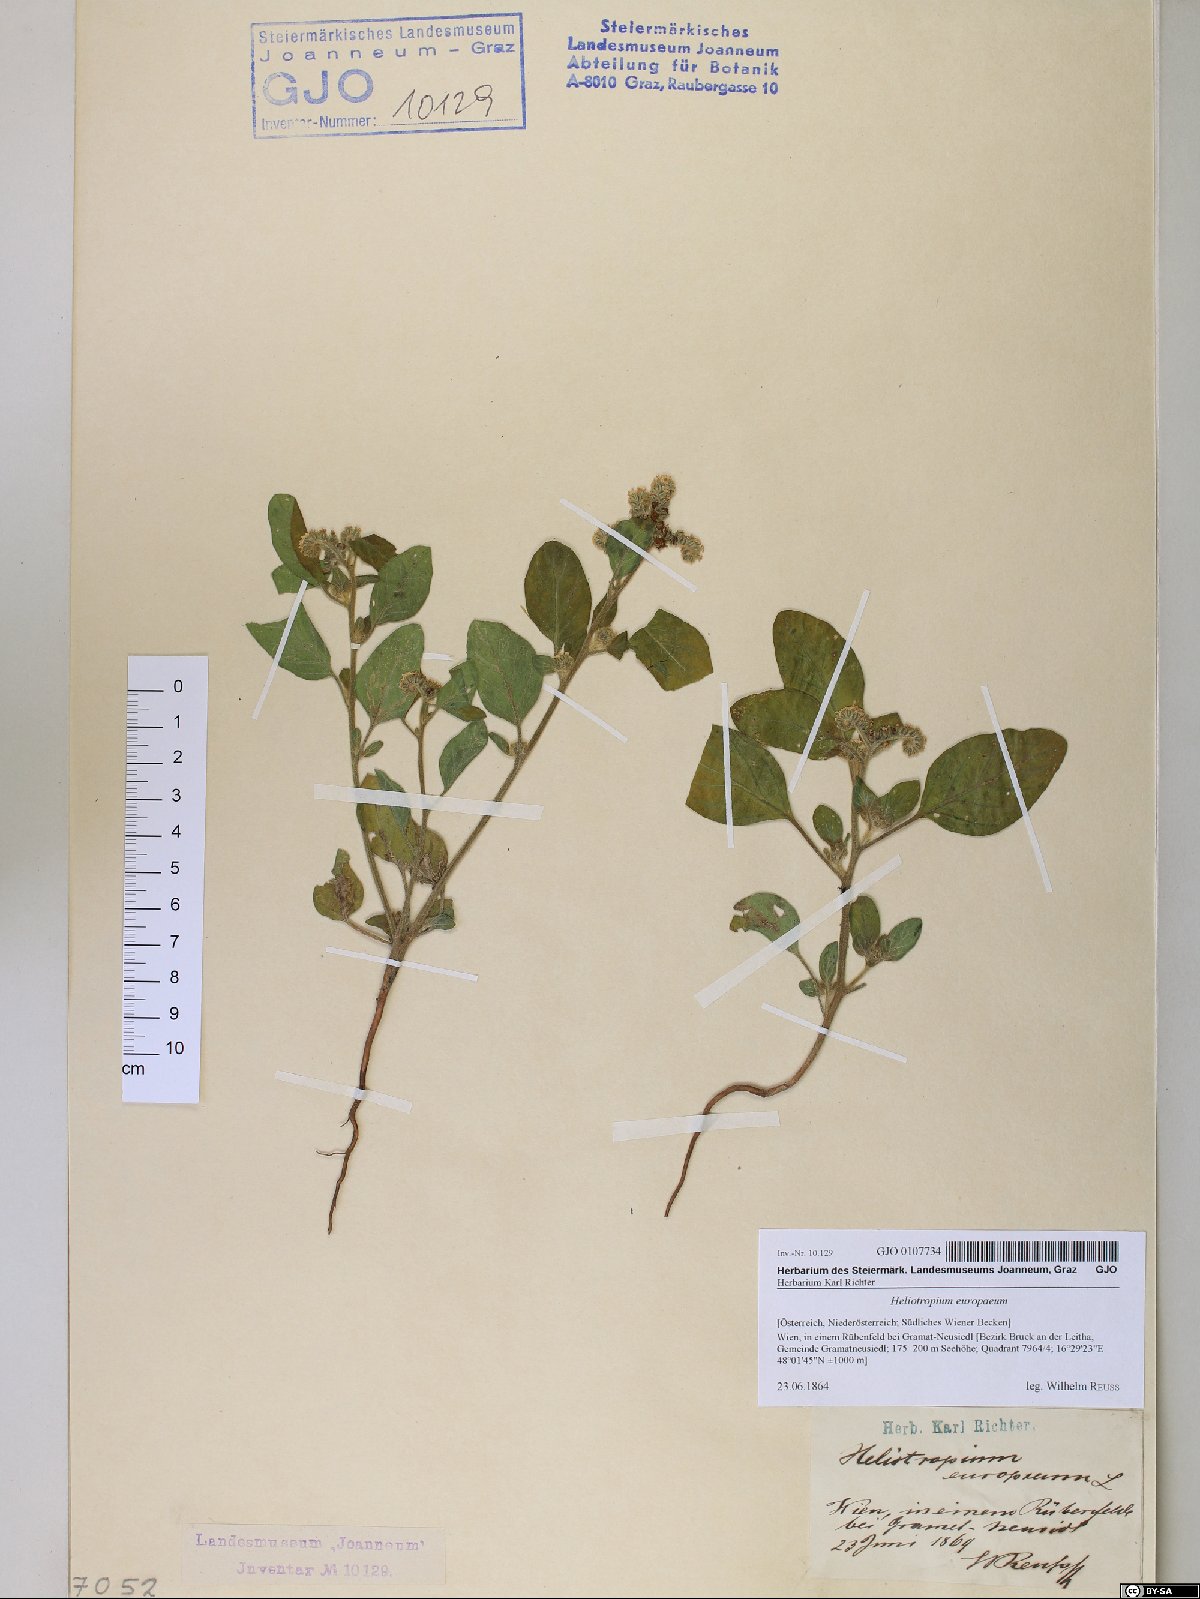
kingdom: Plantae
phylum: Tracheophyta
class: Magnoliopsida
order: Boraginales
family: Heliotropiaceae
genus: Heliotropium
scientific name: Heliotropium europaeum
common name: European heliotrope
